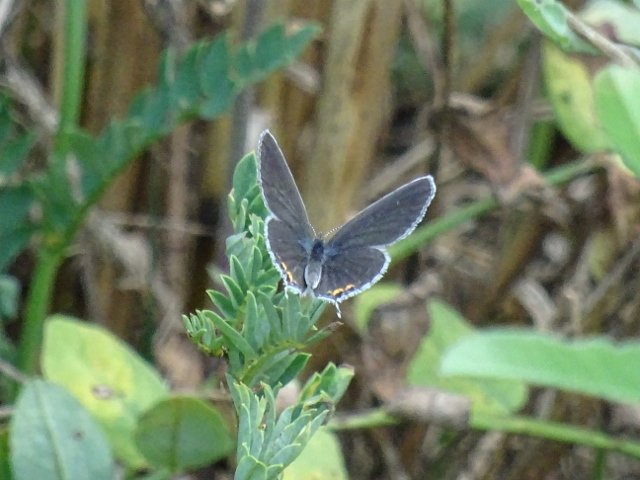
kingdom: Animalia
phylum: Arthropoda
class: Insecta
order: Lepidoptera
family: Lycaenidae
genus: Elkalyce
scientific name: Elkalyce comyntas
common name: Eastern Tailed-Blue
